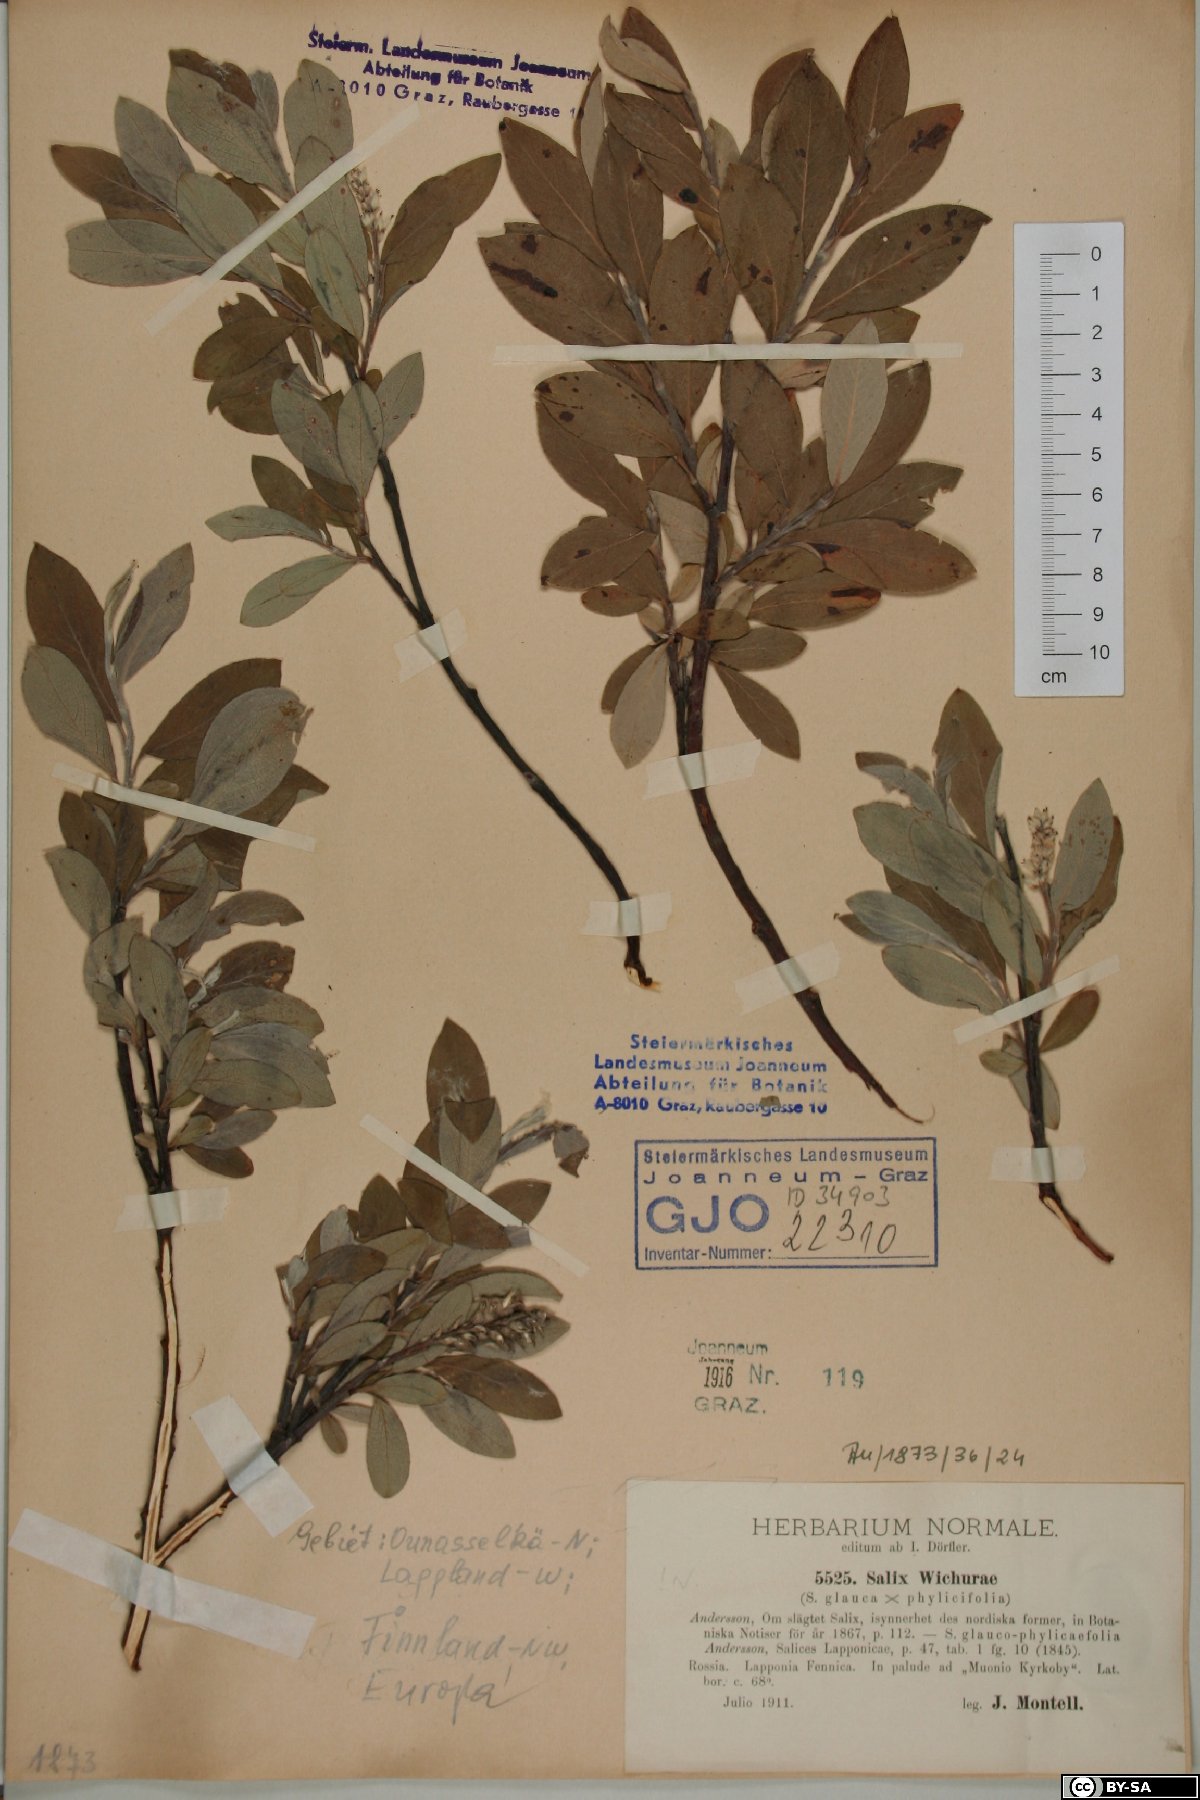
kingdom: Plantae
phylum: Tracheophyta
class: Magnoliopsida
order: Malpighiales
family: Salicaceae
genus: Salix
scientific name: Salix bifida
